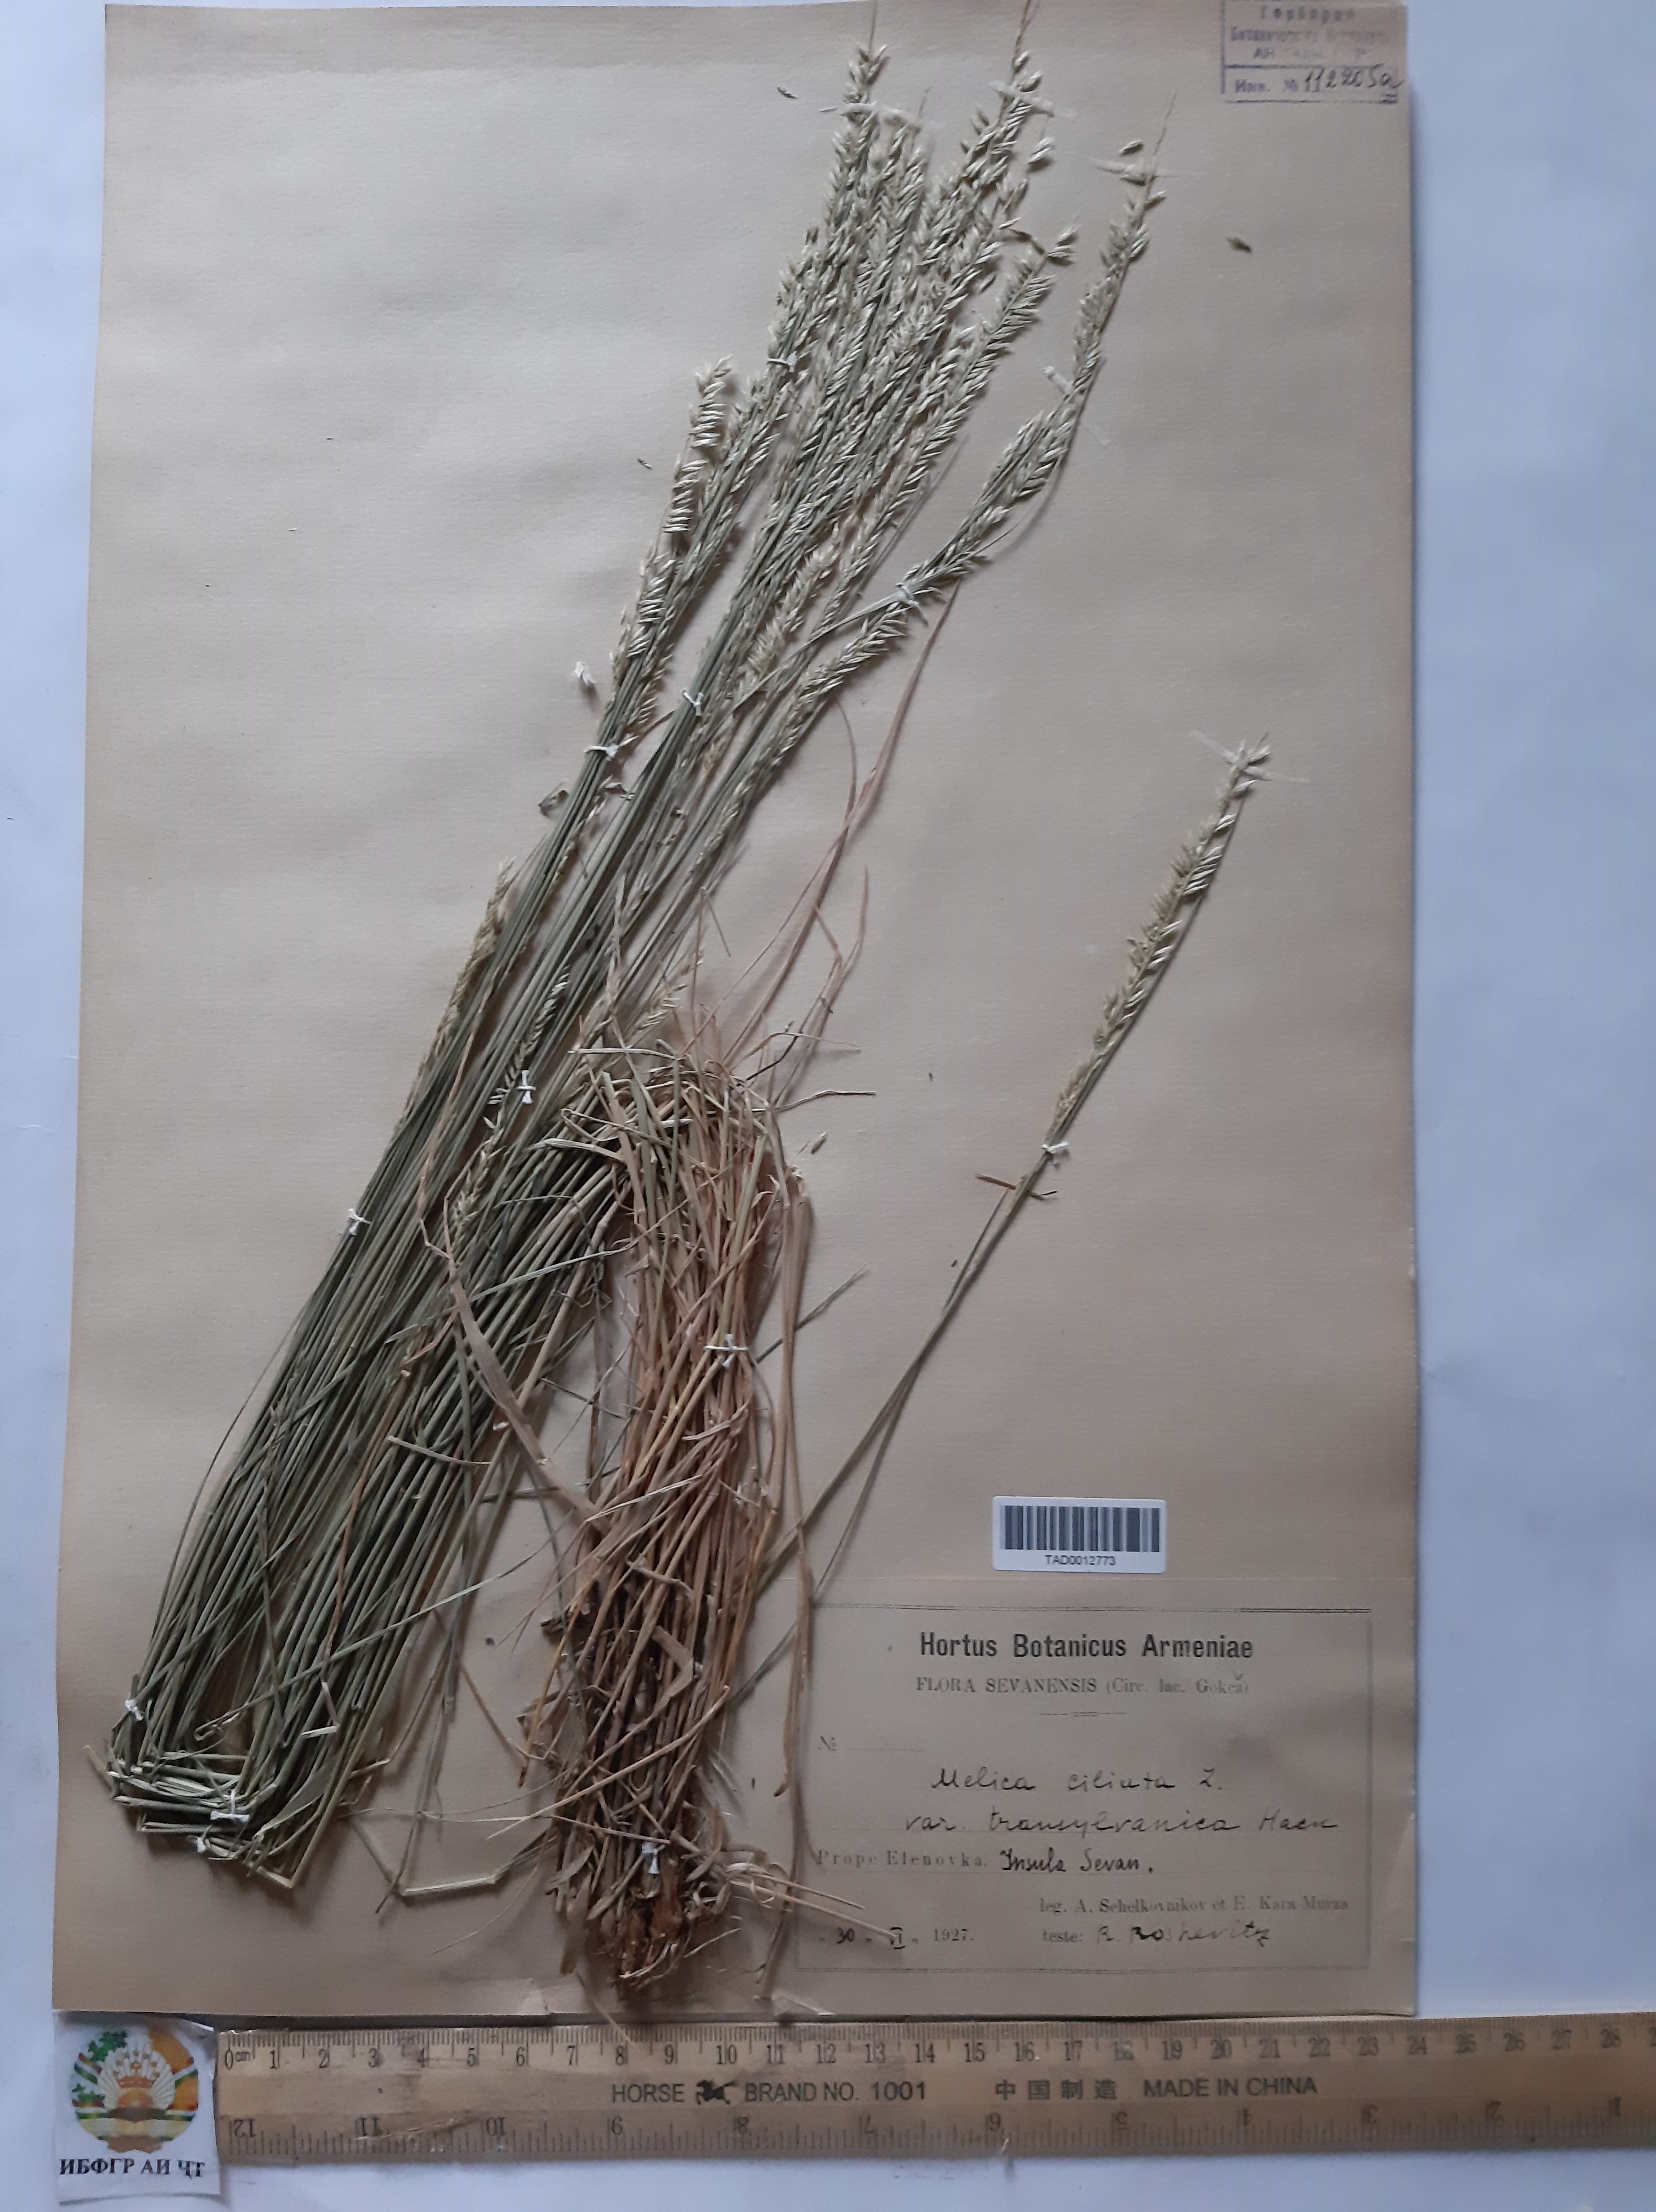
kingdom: Plantae
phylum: Tracheophyta
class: Liliopsida
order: Poales
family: Poaceae
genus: Melica
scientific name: Melica ciliata
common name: Hairy melicgrass
